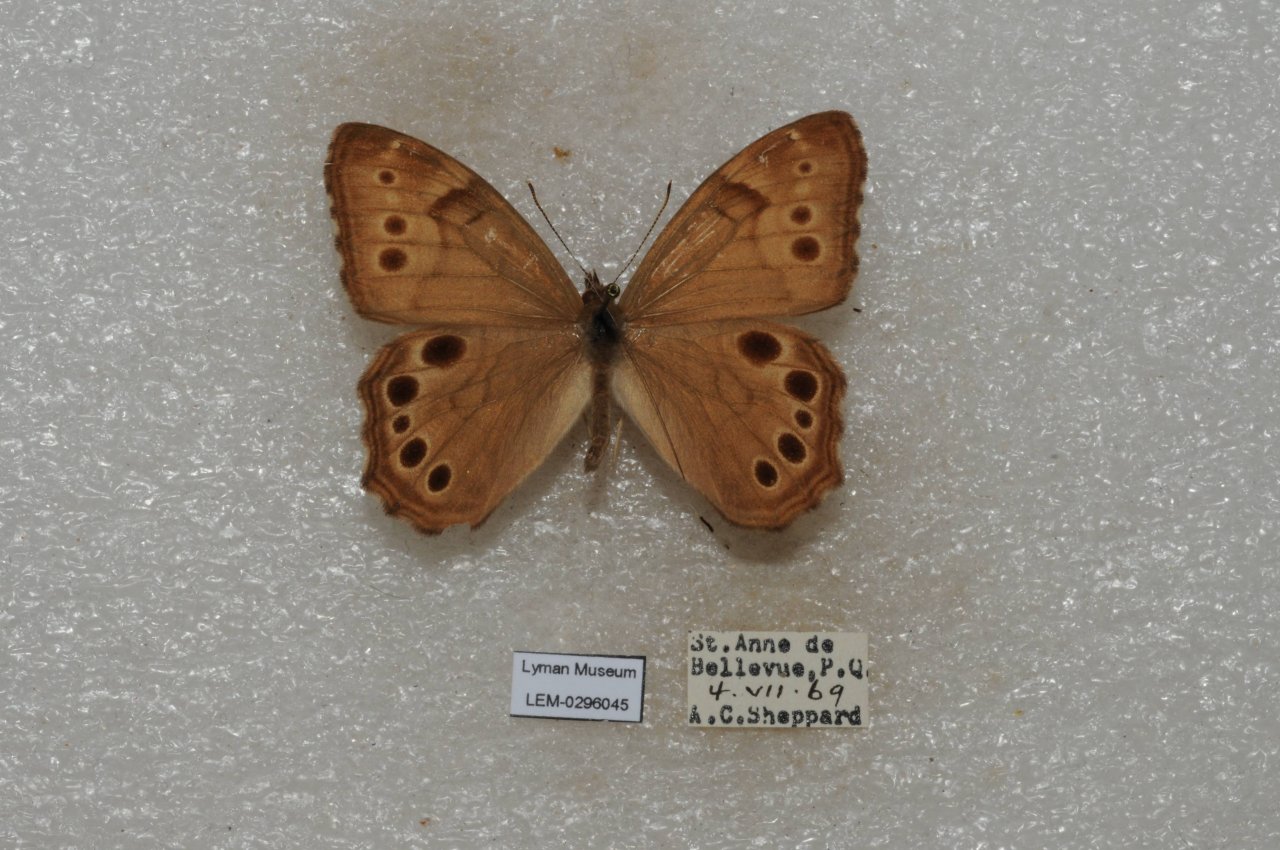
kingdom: Animalia
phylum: Arthropoda
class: Insecta
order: Lepidoptera
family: Nymphalidae
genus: Lethe
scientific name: Lethe anthedon
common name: Northern Pearly-Eye
